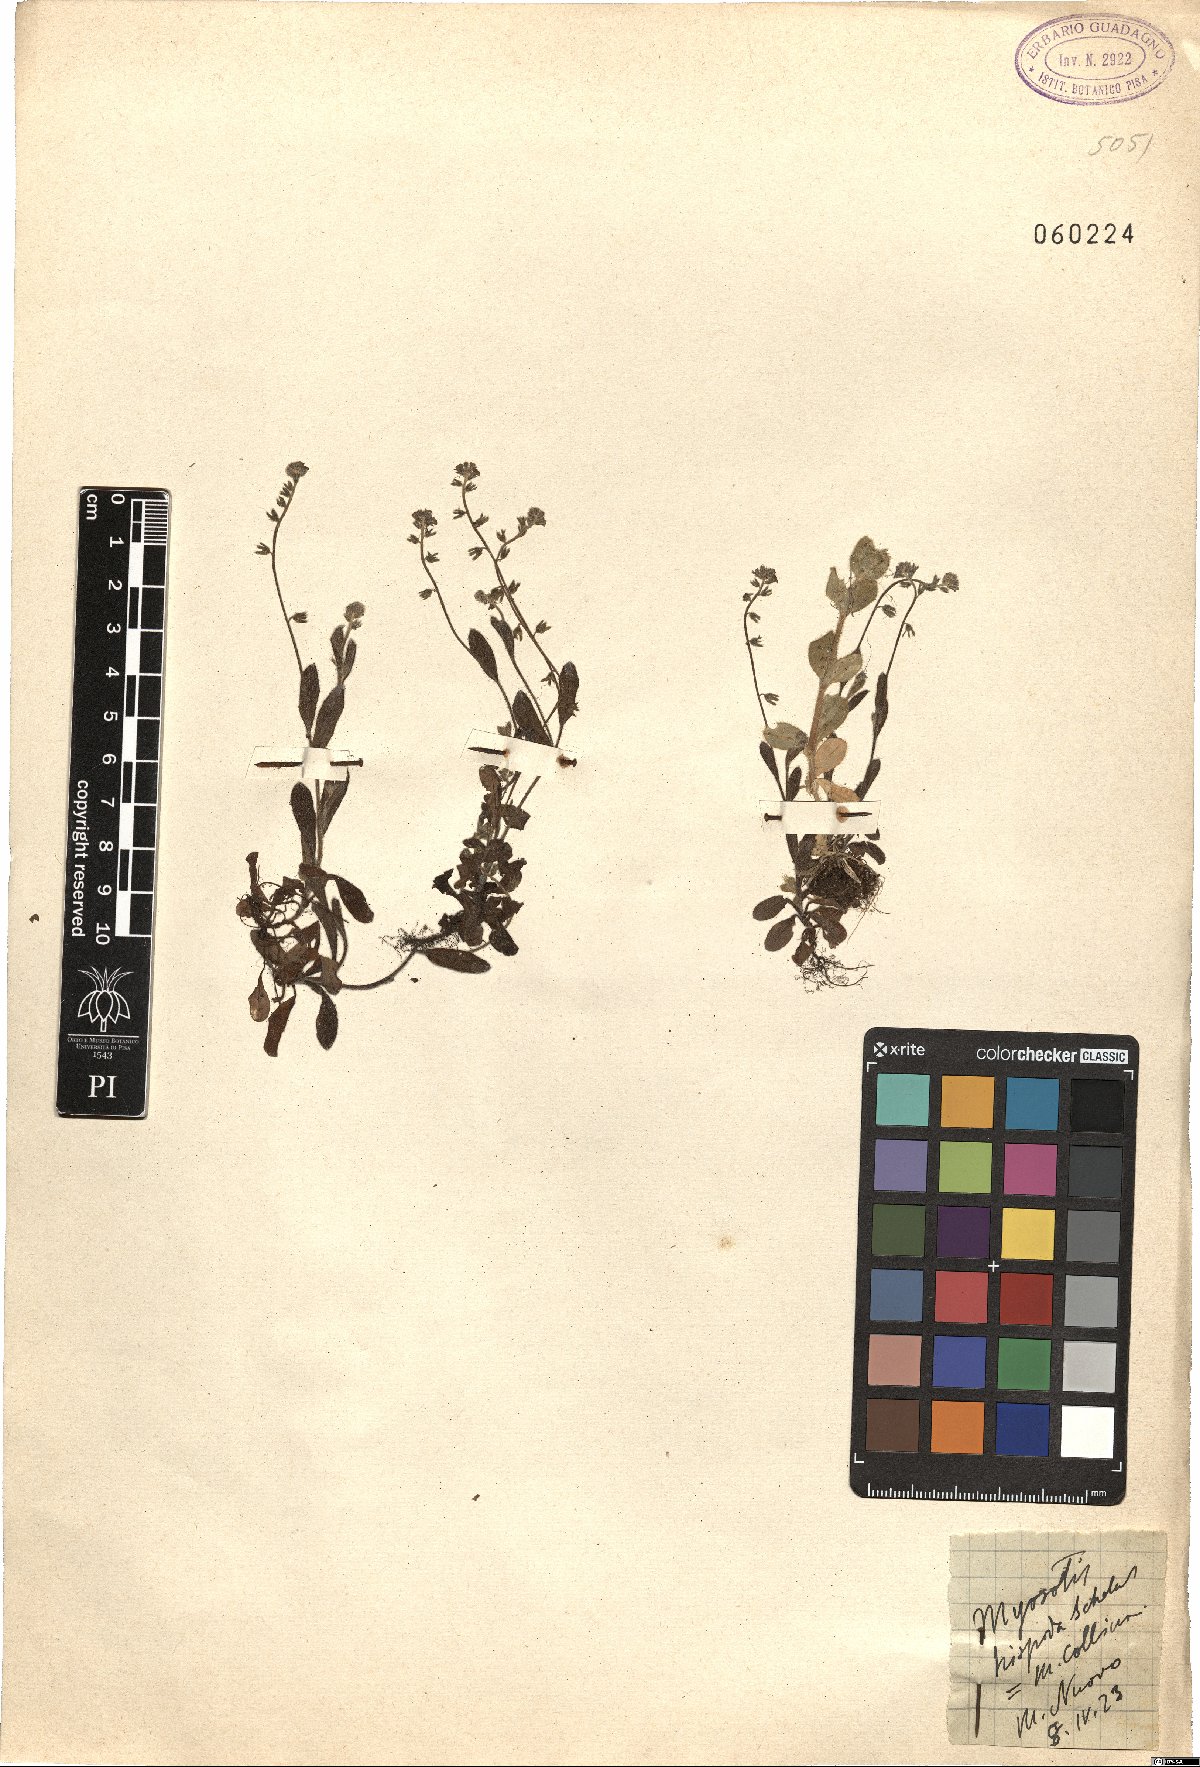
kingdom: Plantae
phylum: Tracheophyta
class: Magnoliopsida
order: Boraginales
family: Boraginaceae
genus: Myosotis
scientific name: Myosotis ramosissima
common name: Early forget-me-not
